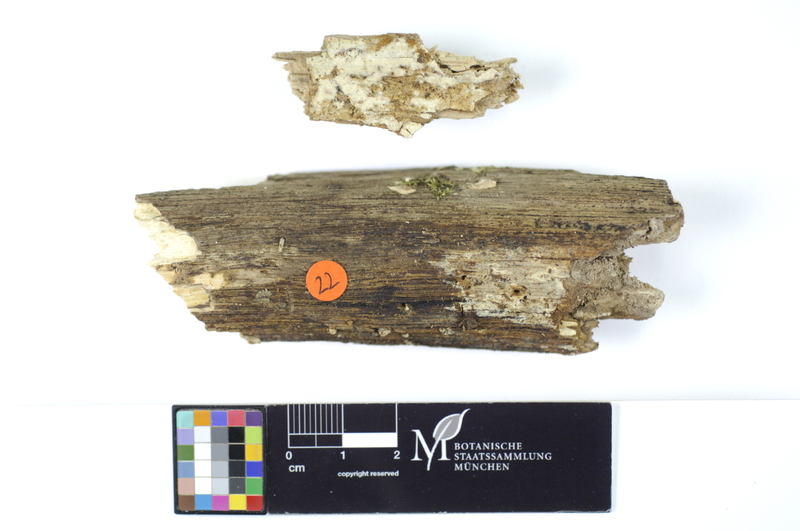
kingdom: Plantae
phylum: Tracheophyta
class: Magnoliopsida
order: Fagales
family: Fagaceae
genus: Quercus
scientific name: Quercus
